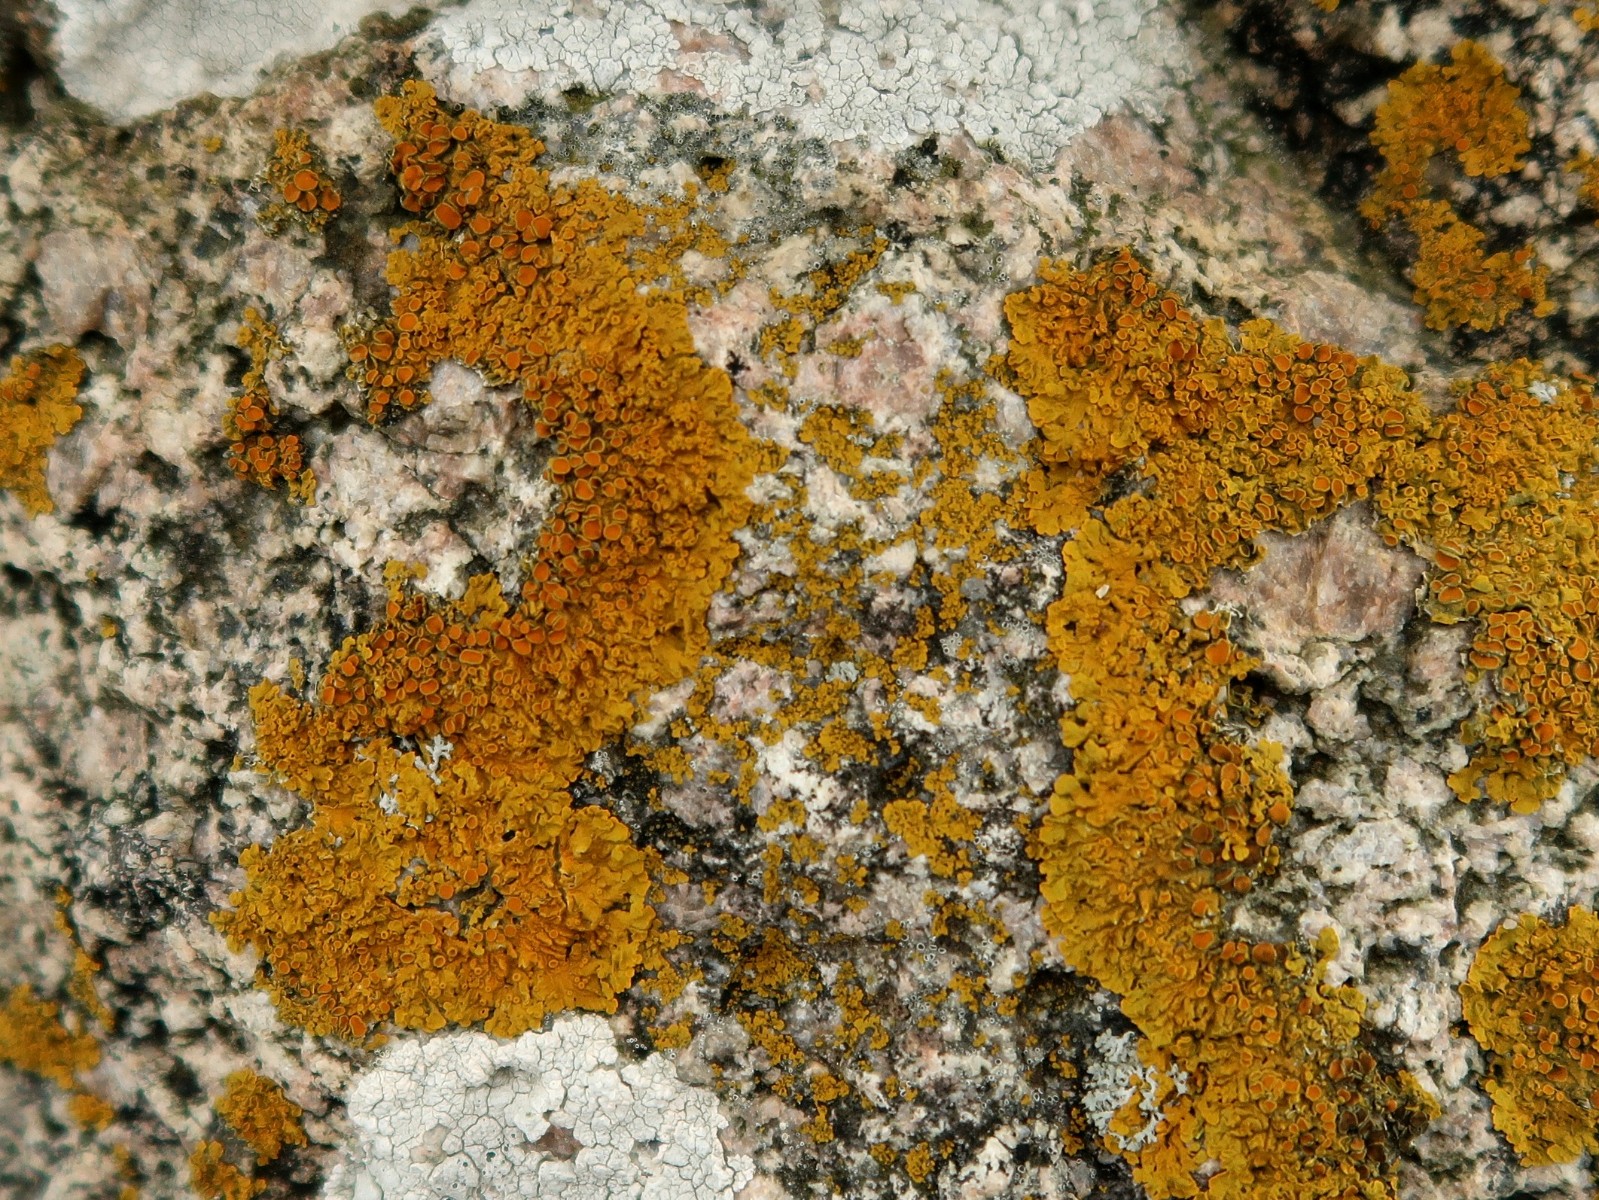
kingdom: Fungi
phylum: Ascomycota
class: Lecanoromycetes
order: Teloschistales
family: Teloschistaceae
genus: Xanthoria
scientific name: Xanthoria parietina
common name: almindelig væggelav
